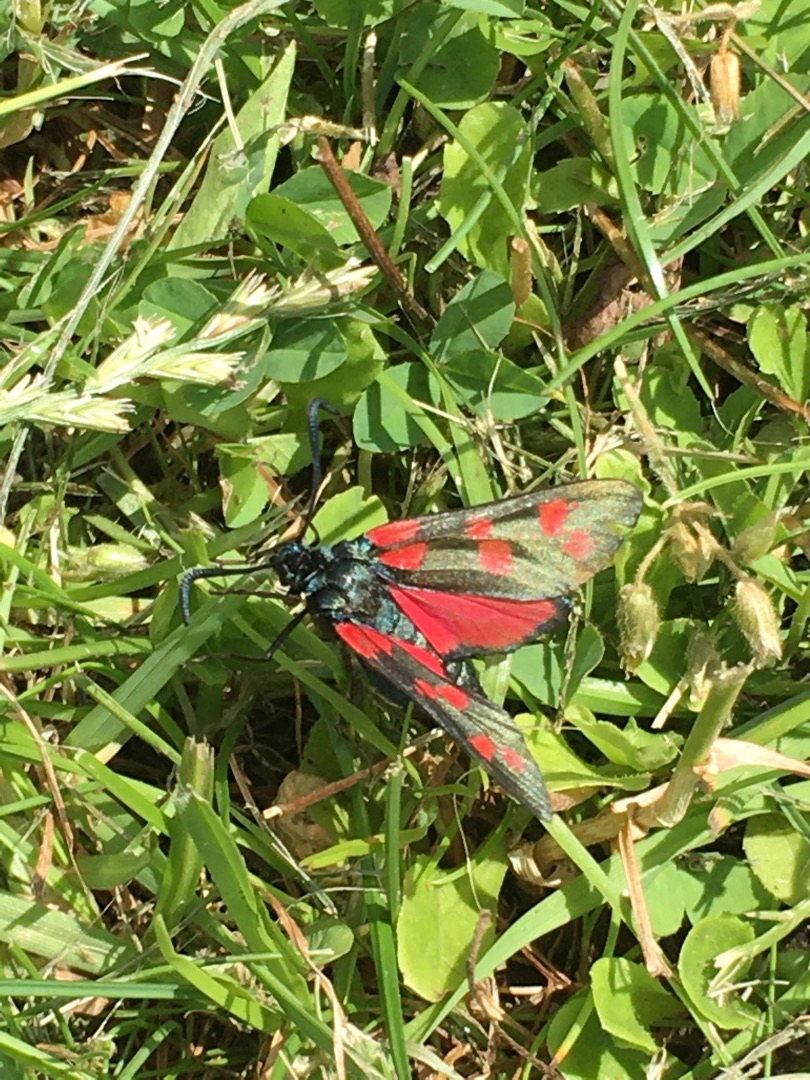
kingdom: Animalia
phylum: Arthropoda
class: Insecta
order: Lepidoptera
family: Zygaenidae
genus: Zygaena
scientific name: Zygaena filipendulae
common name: Seksplettet køllesværmer
